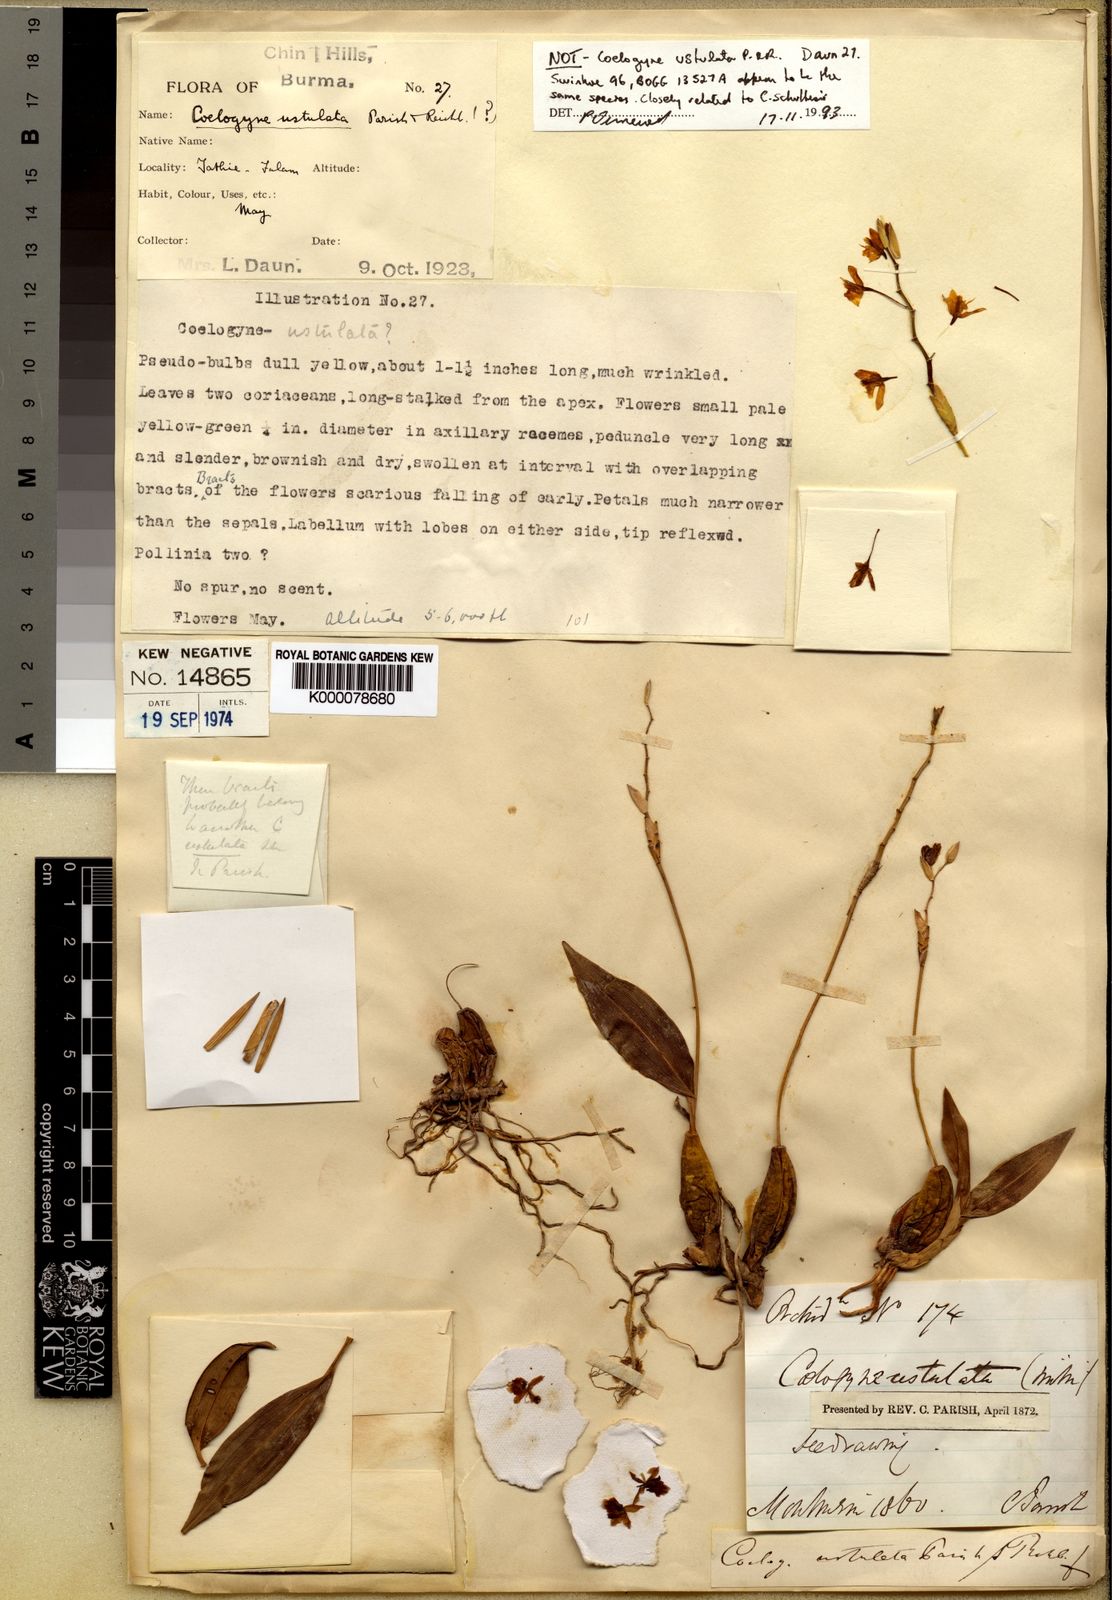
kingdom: Plantae
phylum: Tracheophyta
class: Liliopsida
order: Asparagales
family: Orchidaceae
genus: Coelogyne
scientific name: Coelogyne ustulata
